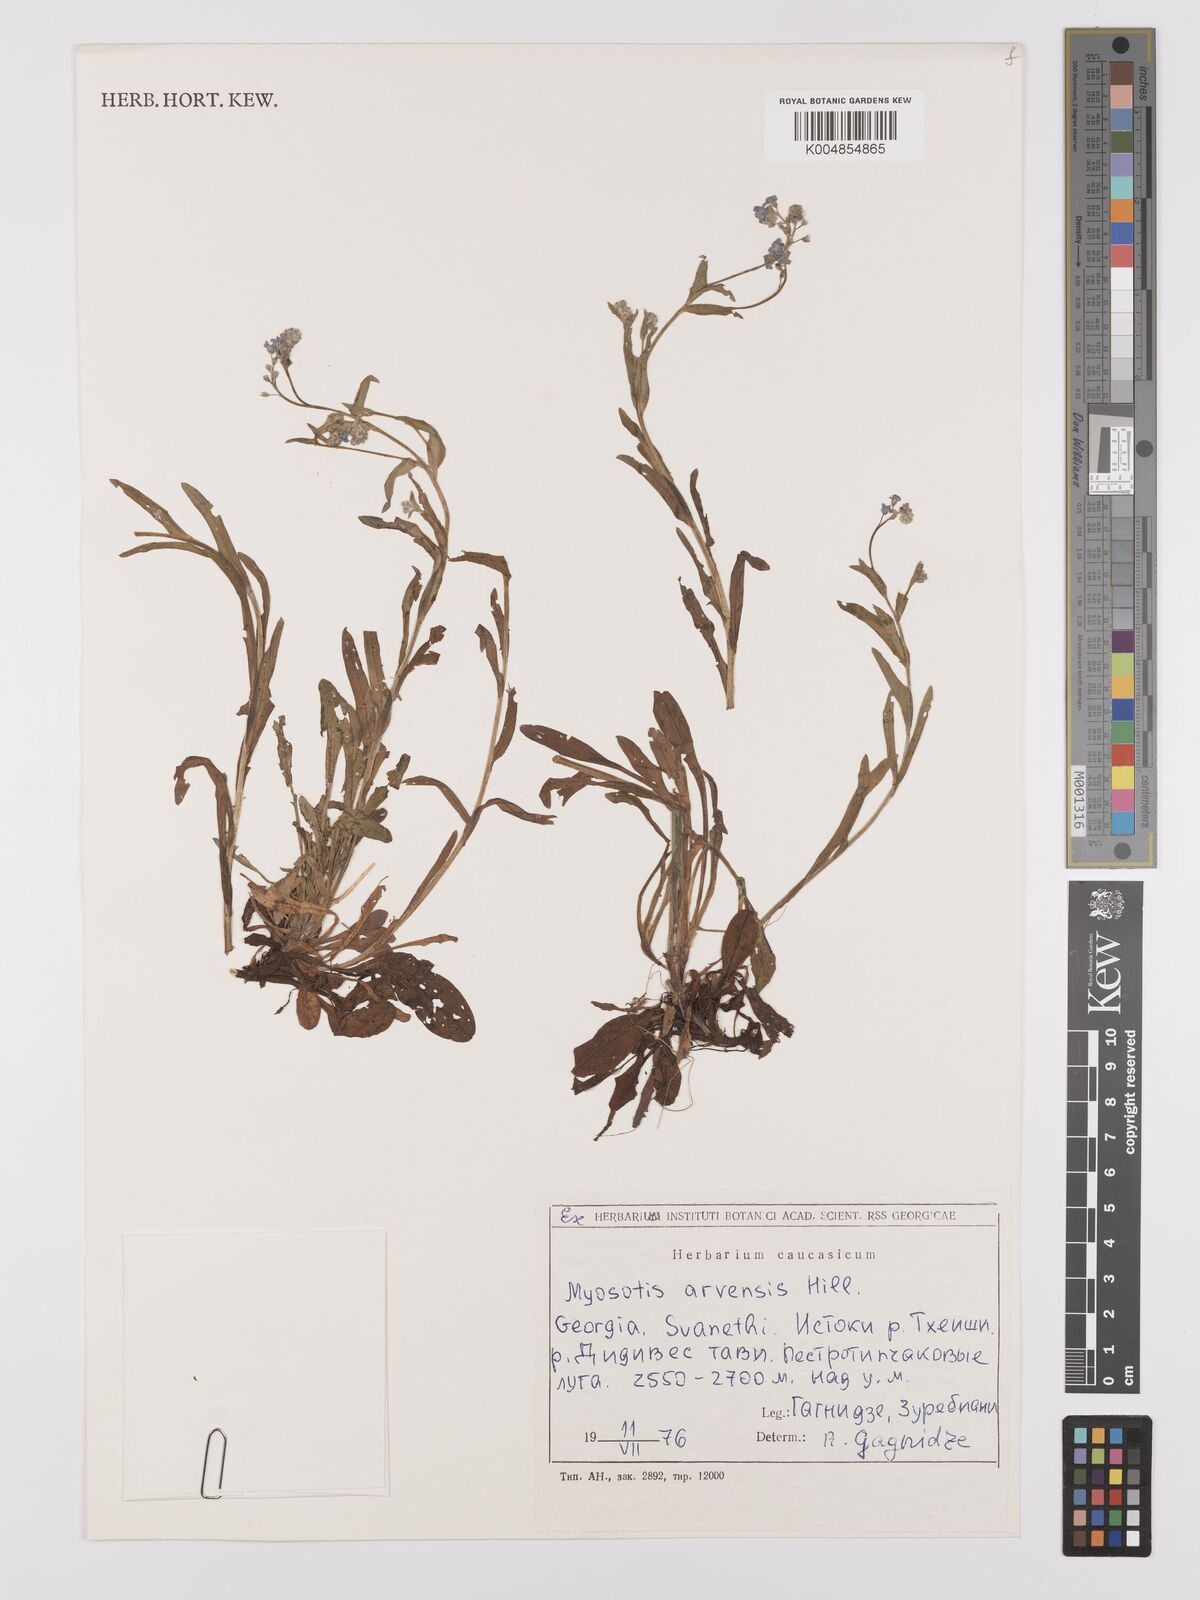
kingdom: Plantae
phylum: Tracheophyta
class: Magnoliopsida
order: Boraginales
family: Boraginaceae
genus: Myosotis
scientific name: Myosotis arvensis
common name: Field forget-me-not
